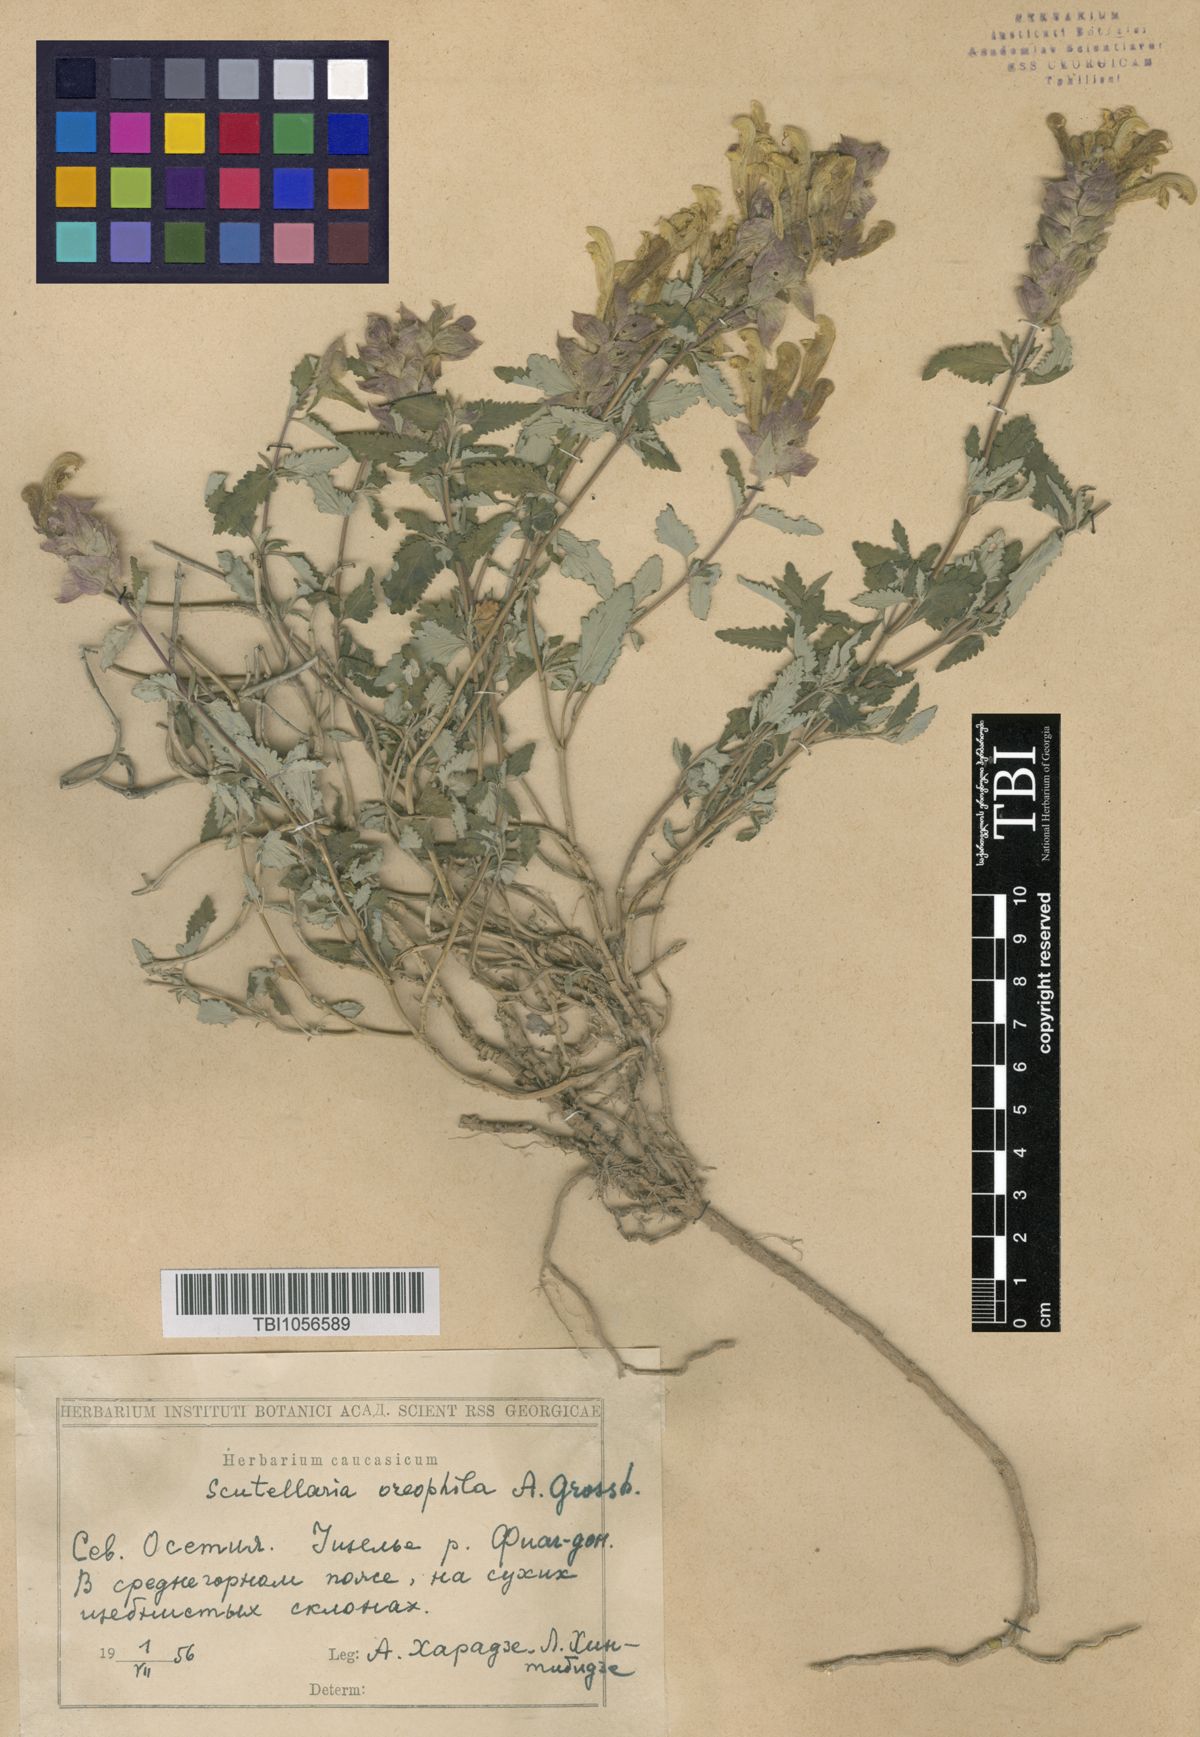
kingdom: Plantae
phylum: Tracheophyta
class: Magnoliopsida
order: Lamiales
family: Lamiaceae
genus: Scutellaria
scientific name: Scutellaria oreophila
